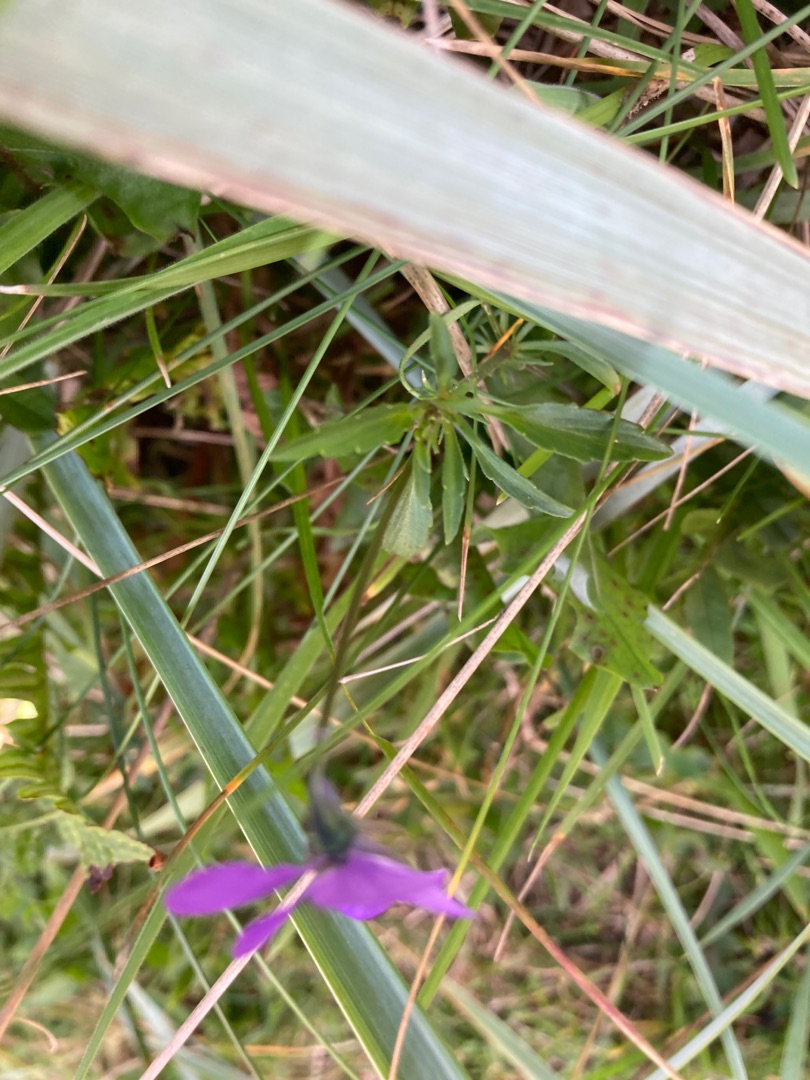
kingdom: Plantae
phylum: Tracheophyta
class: Magnoliopsida
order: Malpighiales
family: Violaceae
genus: Viola
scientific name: Viola tricolor
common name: Stedmoderblomst
